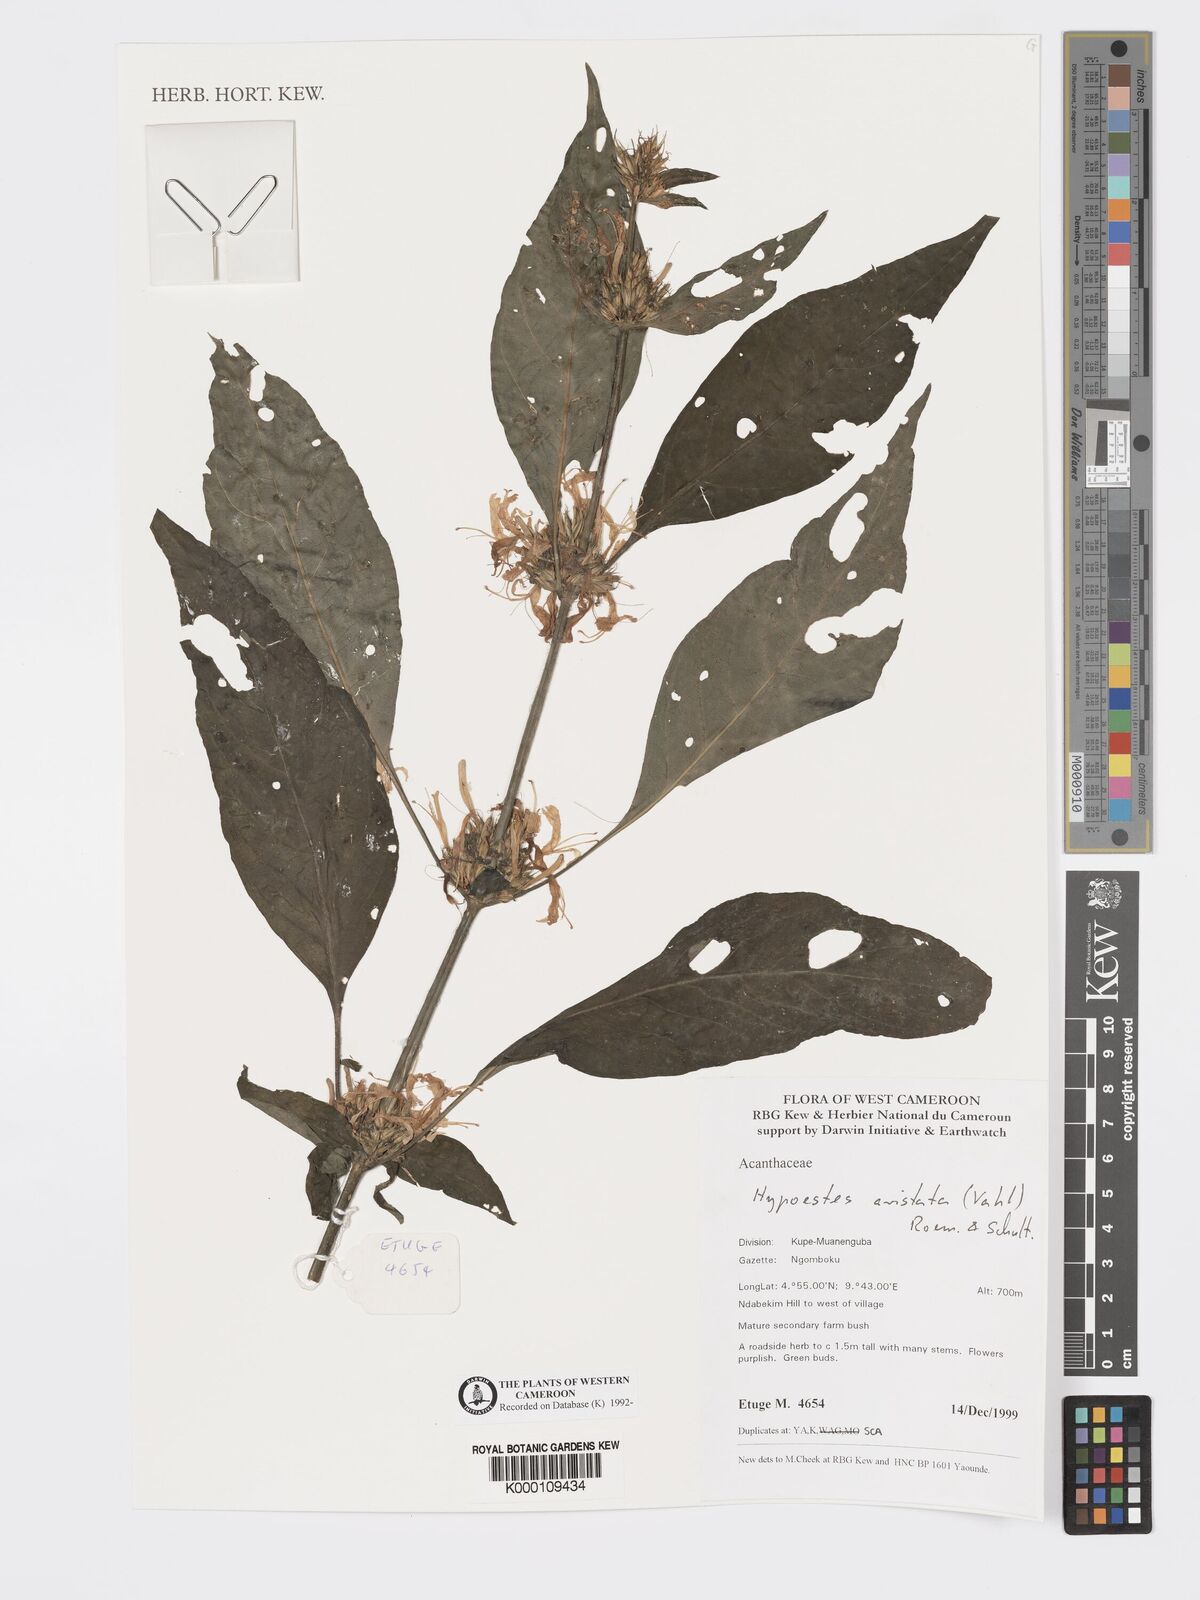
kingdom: Plantae
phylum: Tracheophyta
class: Magnoliopsida
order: Lamiales
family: Acanthaceae
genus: Hypoestes
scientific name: Hypoestes aristata
